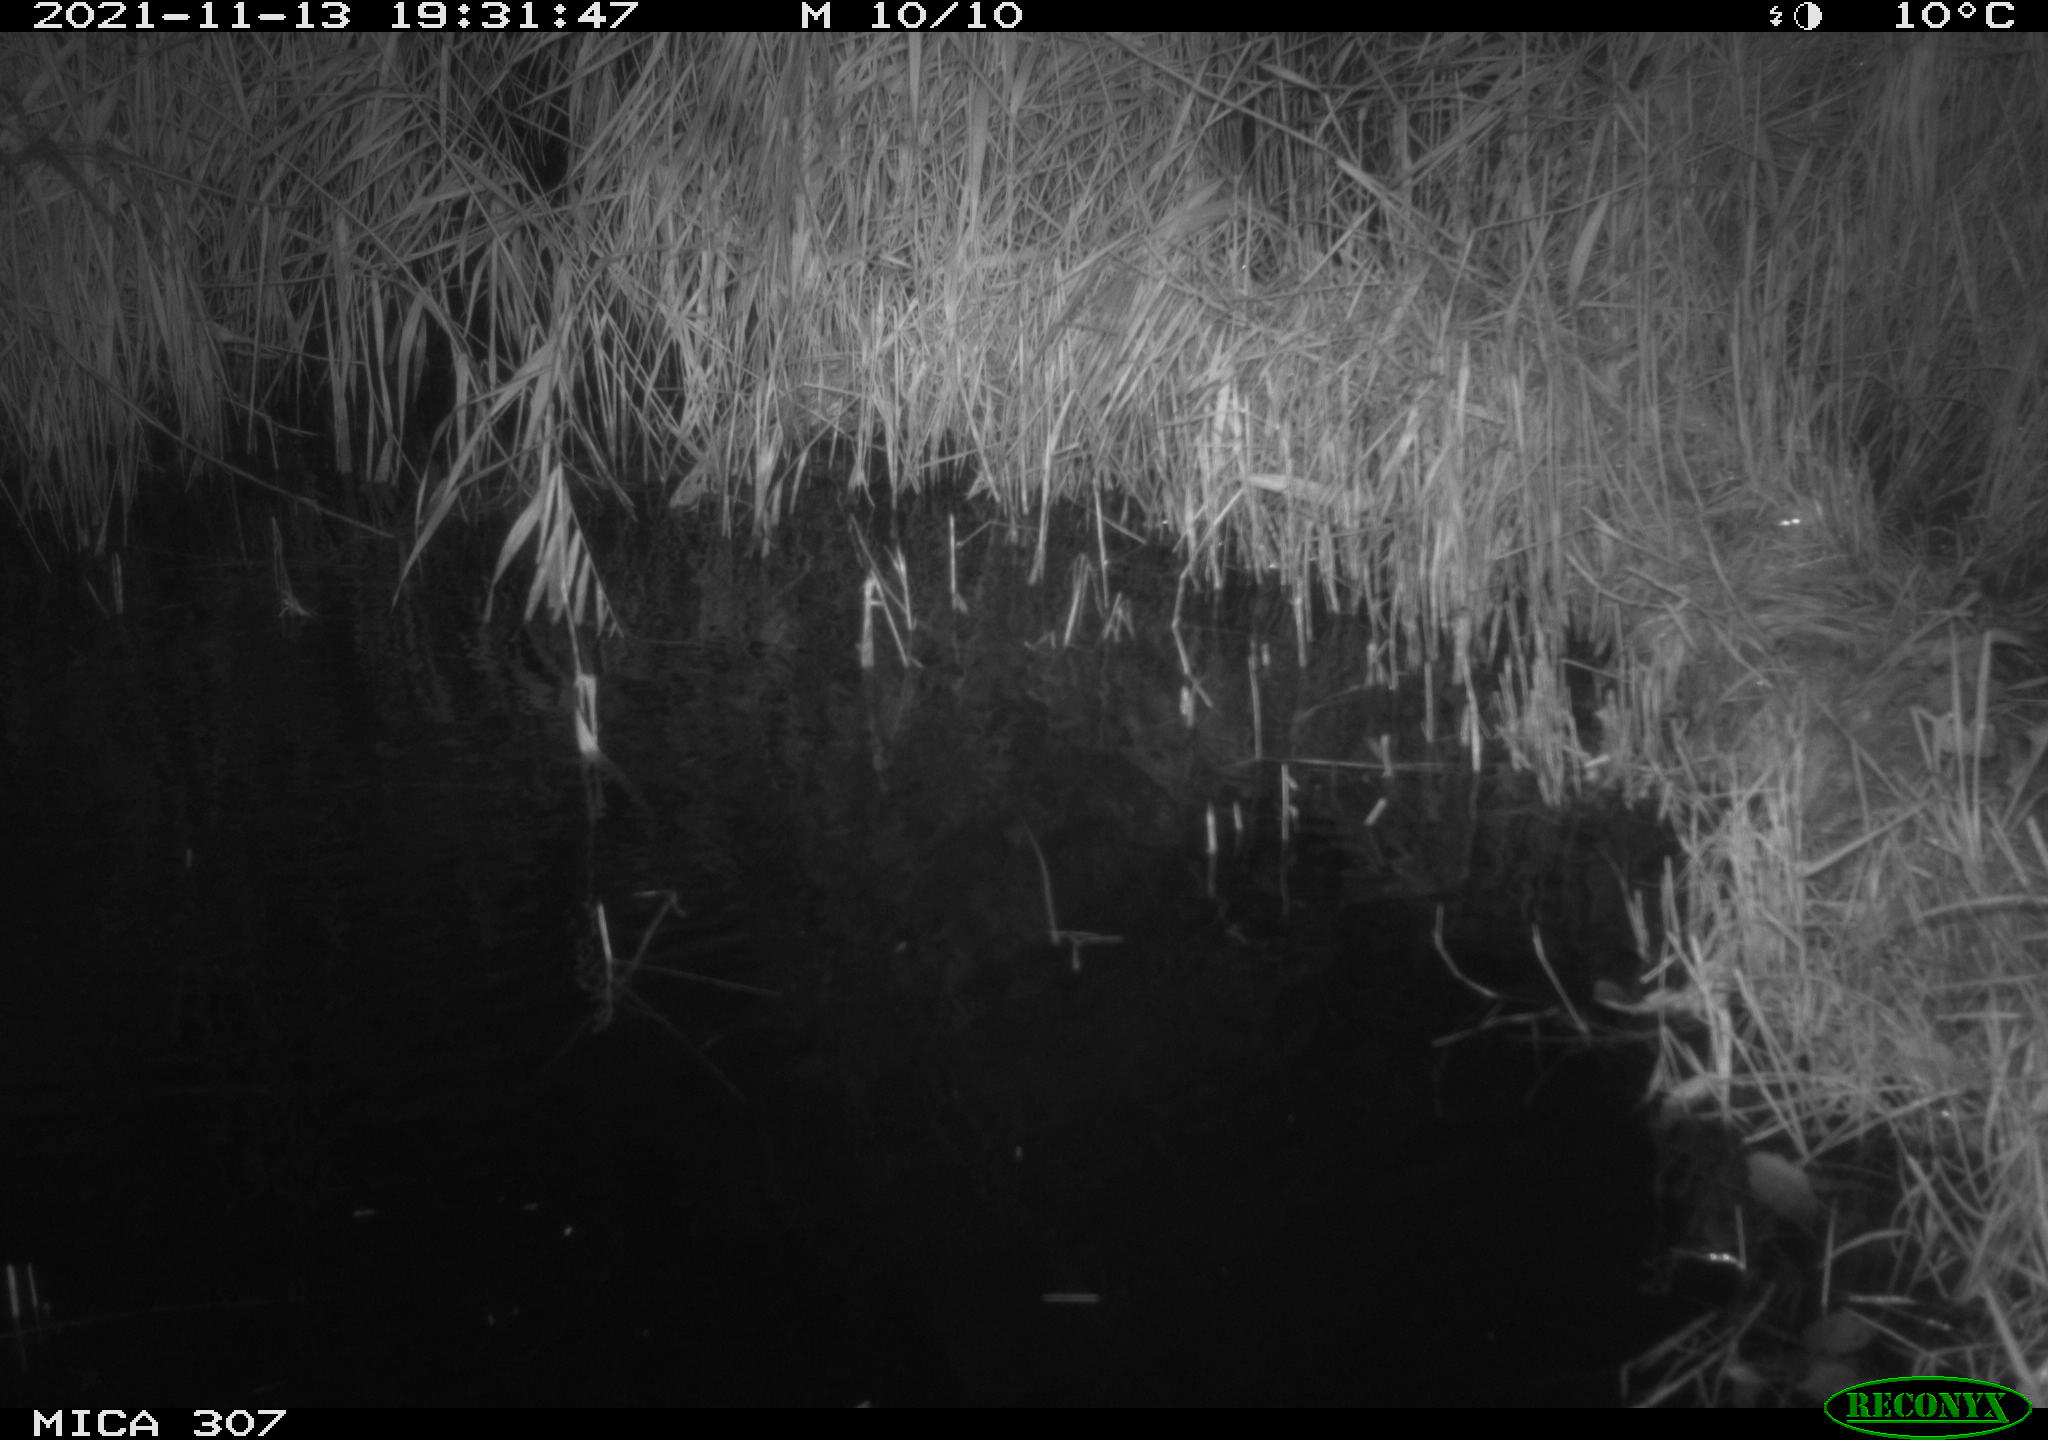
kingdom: Animalia
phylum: Chordata
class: Mammalia
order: Rodentia
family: Cricetidae
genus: Ondatra
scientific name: Ondatra zibethicus
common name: Muskrat
